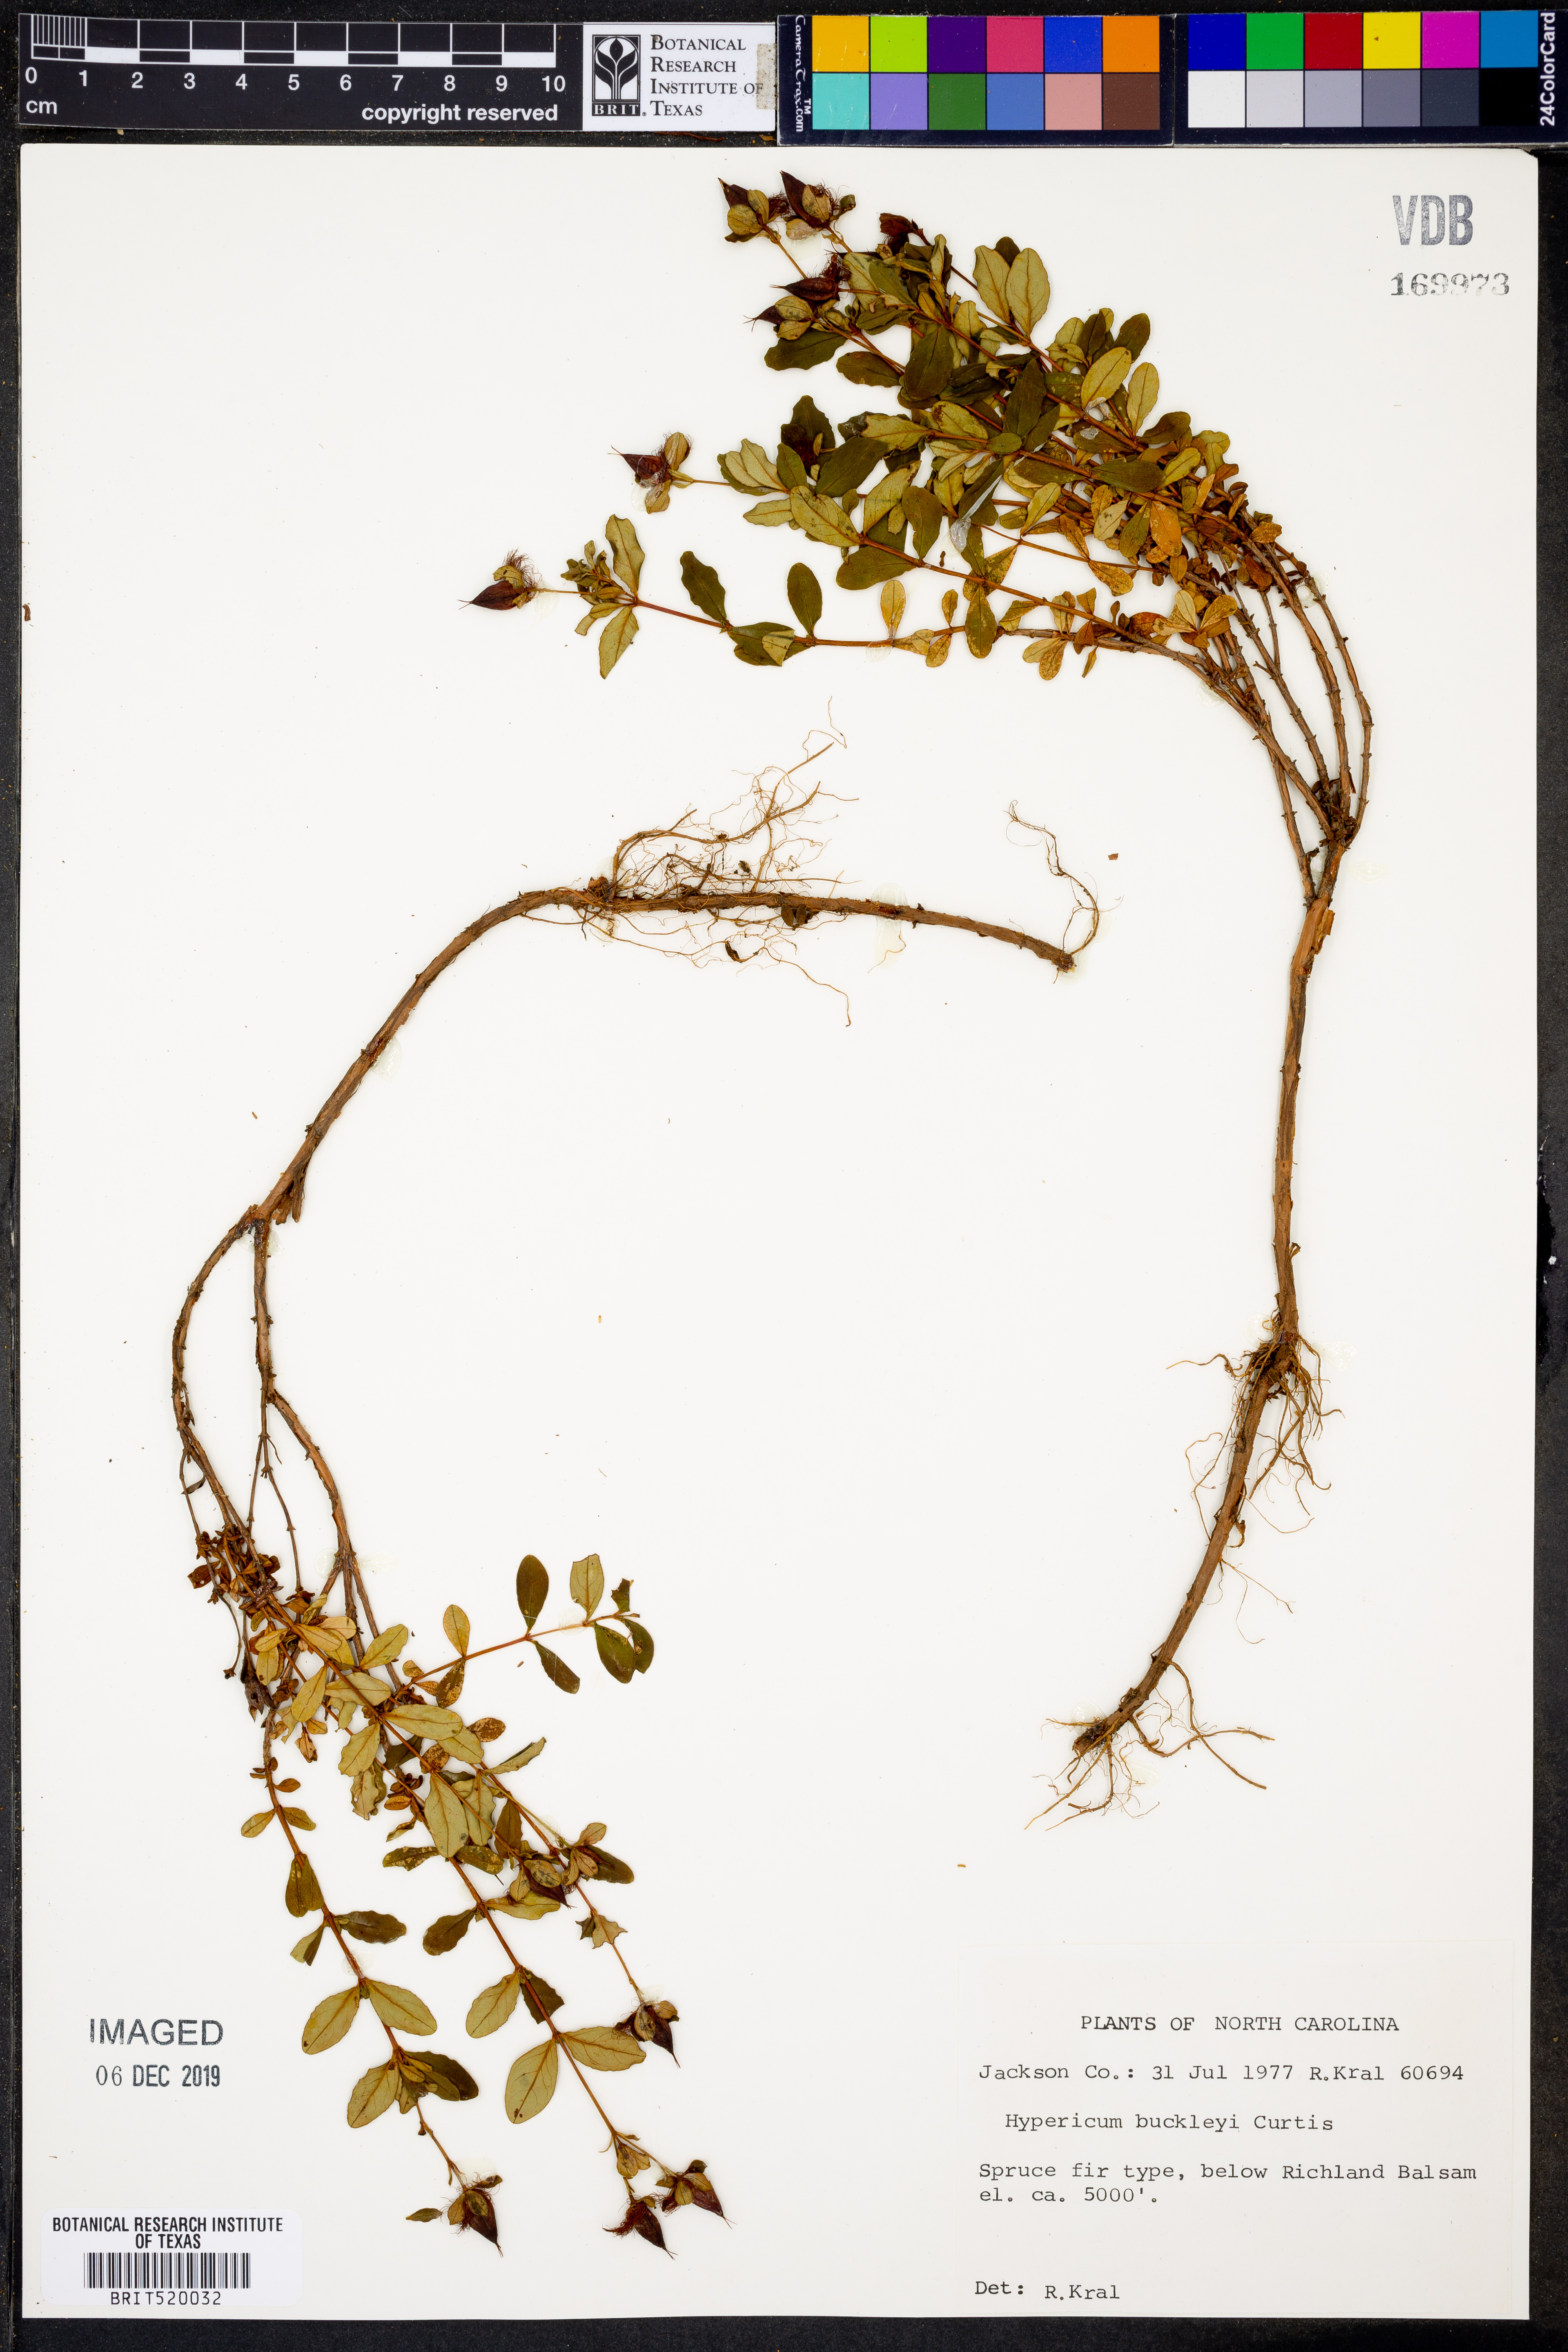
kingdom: Plantae
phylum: Tracheophyta
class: Magnoliopsida
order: Malpighiales
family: Hypericaceae
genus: Hypericum
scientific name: Hypericum buckleyi
